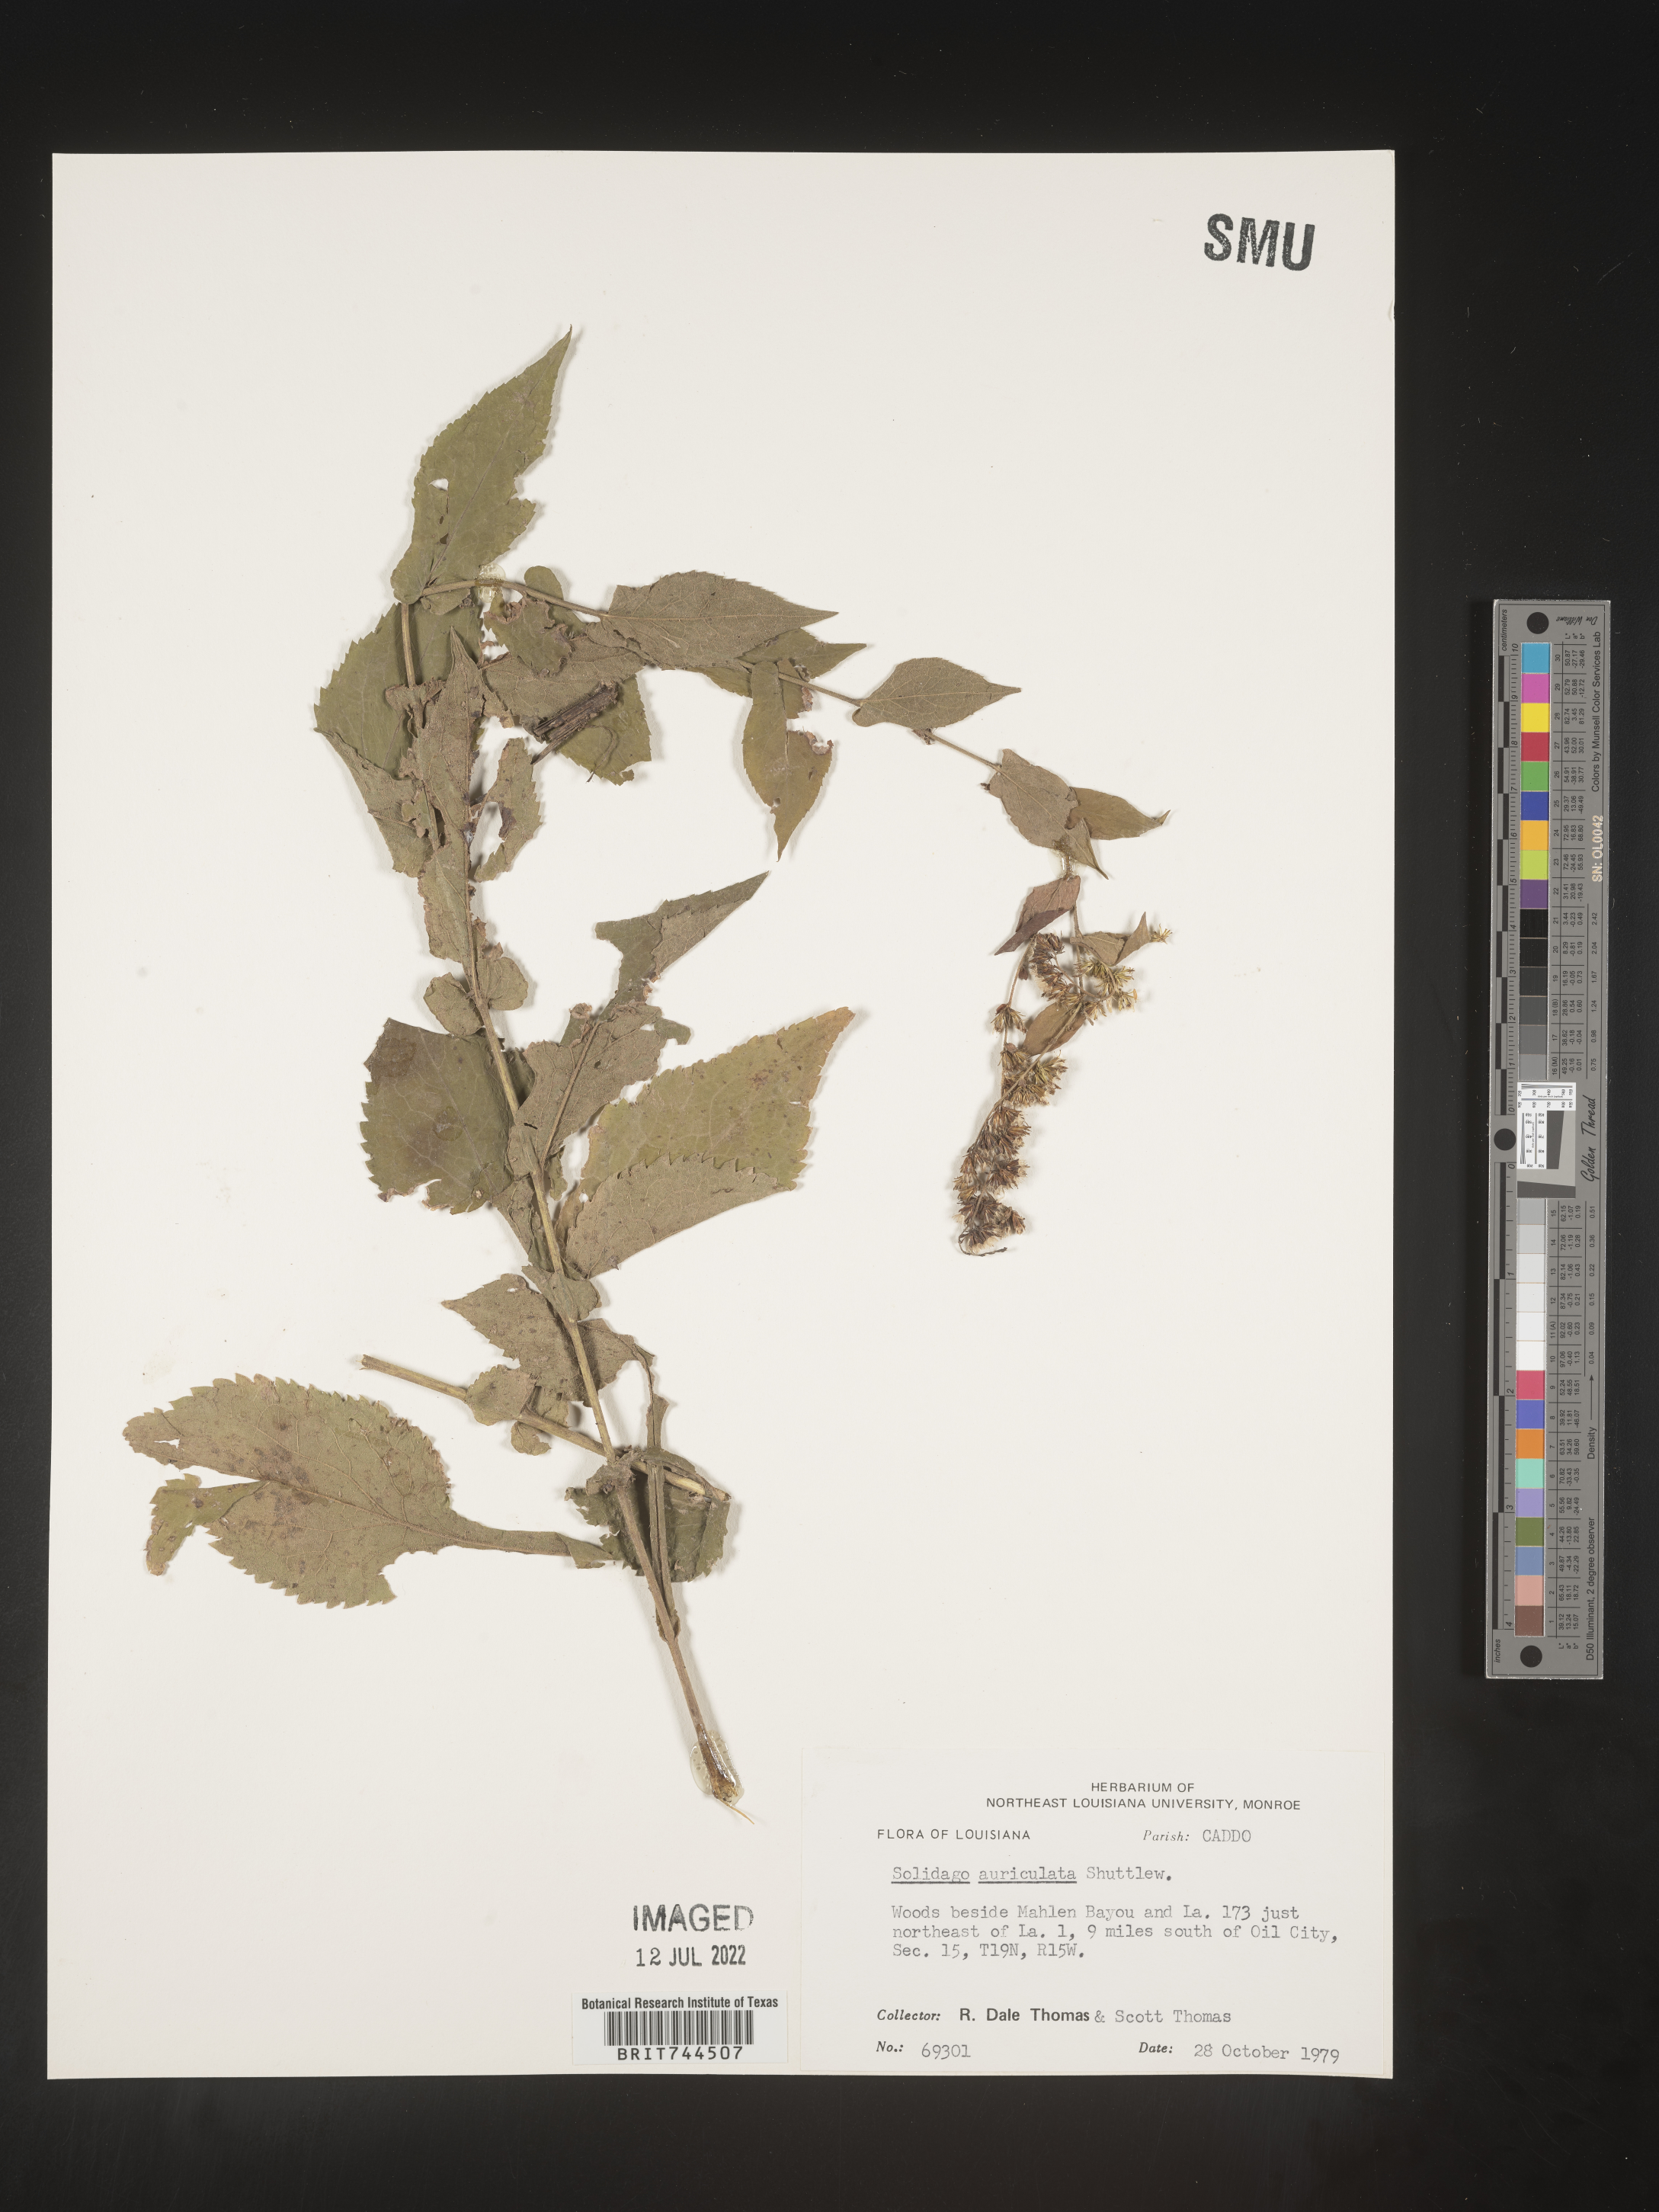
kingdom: Plantae
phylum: Tracheophyta
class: Magnoliopsida
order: Asterales
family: Asteraceae
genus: Solidago
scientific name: Solidago auriculata
